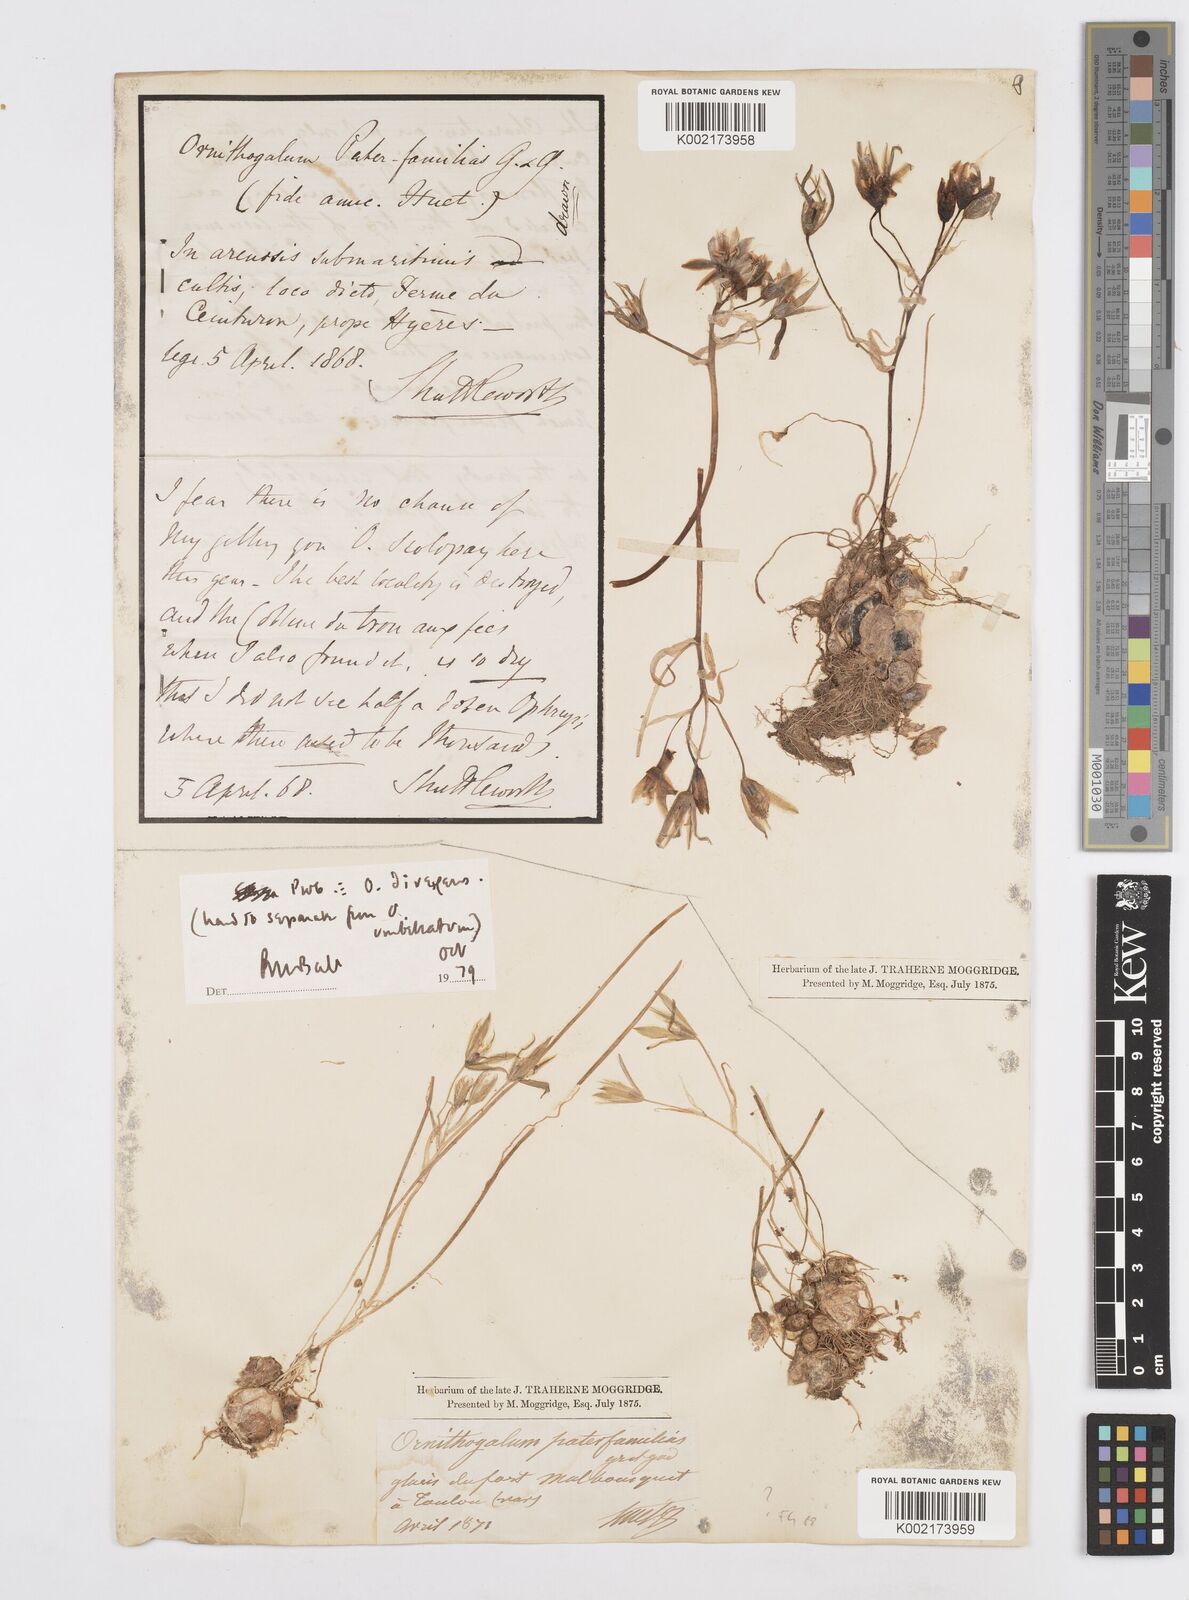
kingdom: Plantae
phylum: Tracheophyta
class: Liliopsida
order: Asparagales
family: Asparagaceae
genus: Ornithogalum
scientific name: Ornithogalum divergens
